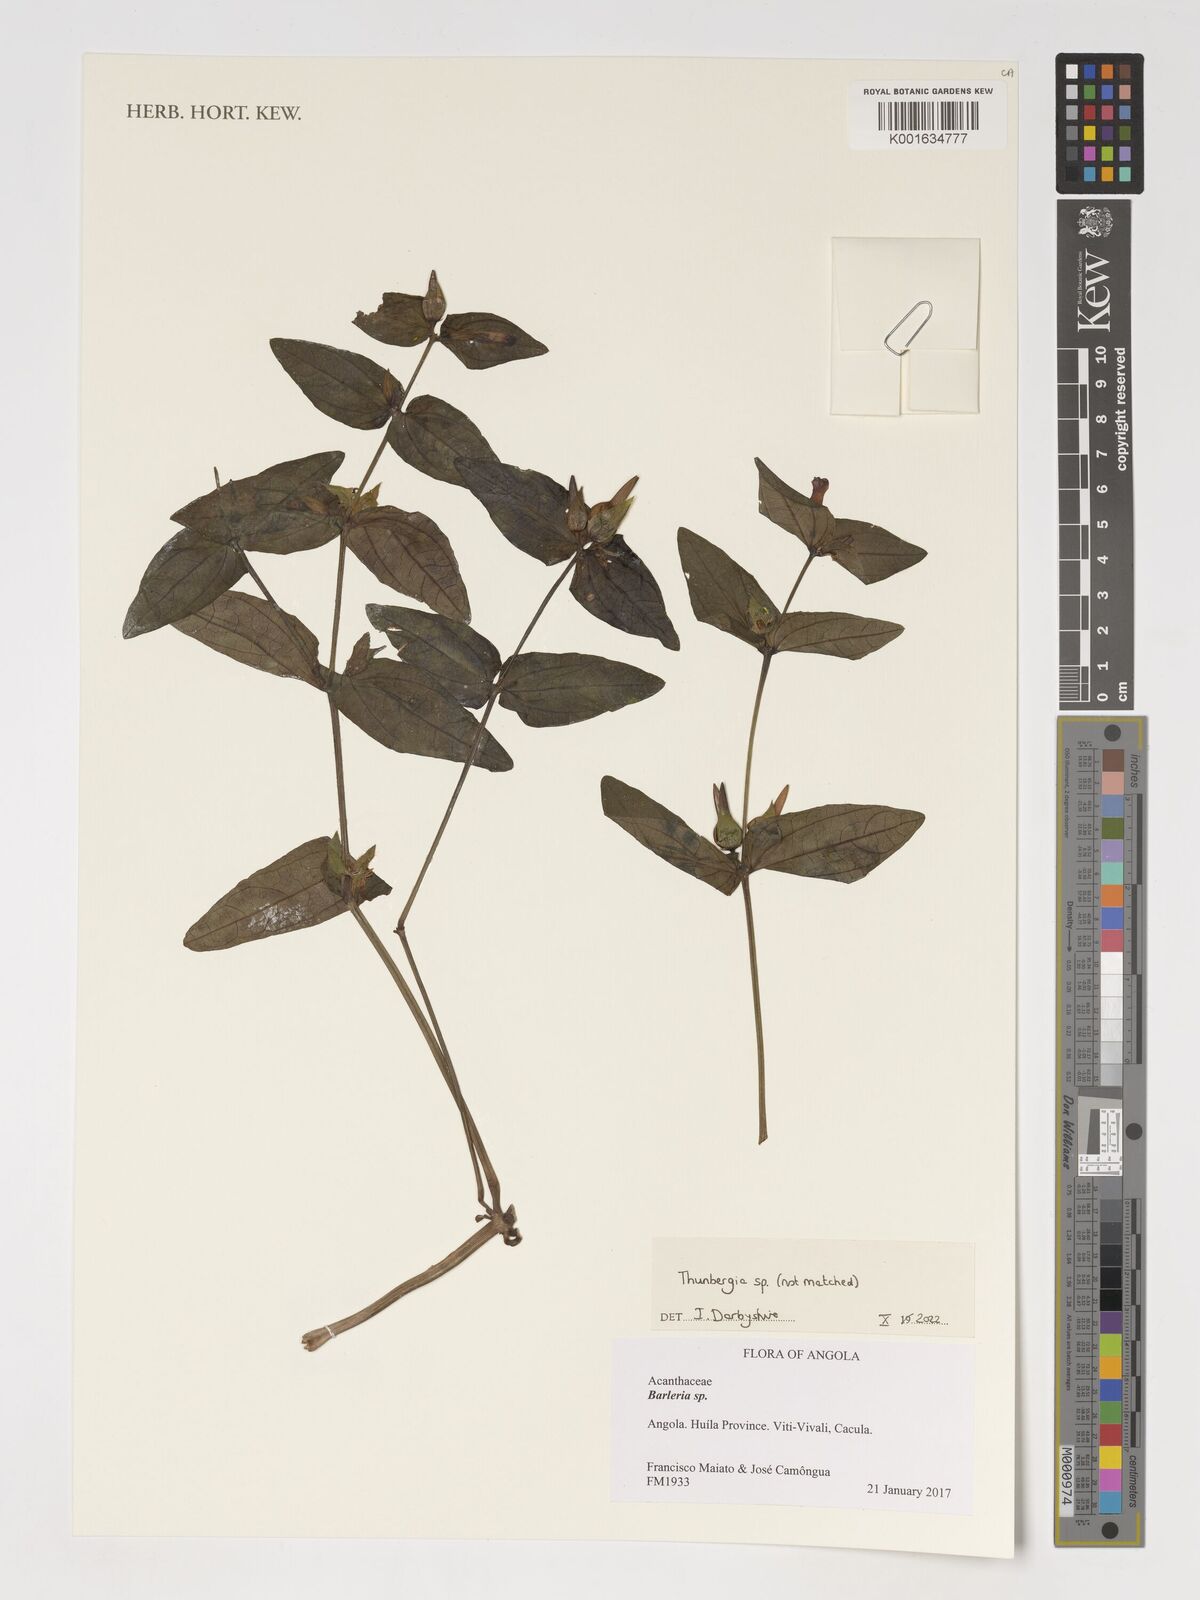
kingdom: Plantae
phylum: Tracheophyta
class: Magnoliopsida
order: Lamiales
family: Acanthaceae
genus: Thunbergia
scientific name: Thunbergia
